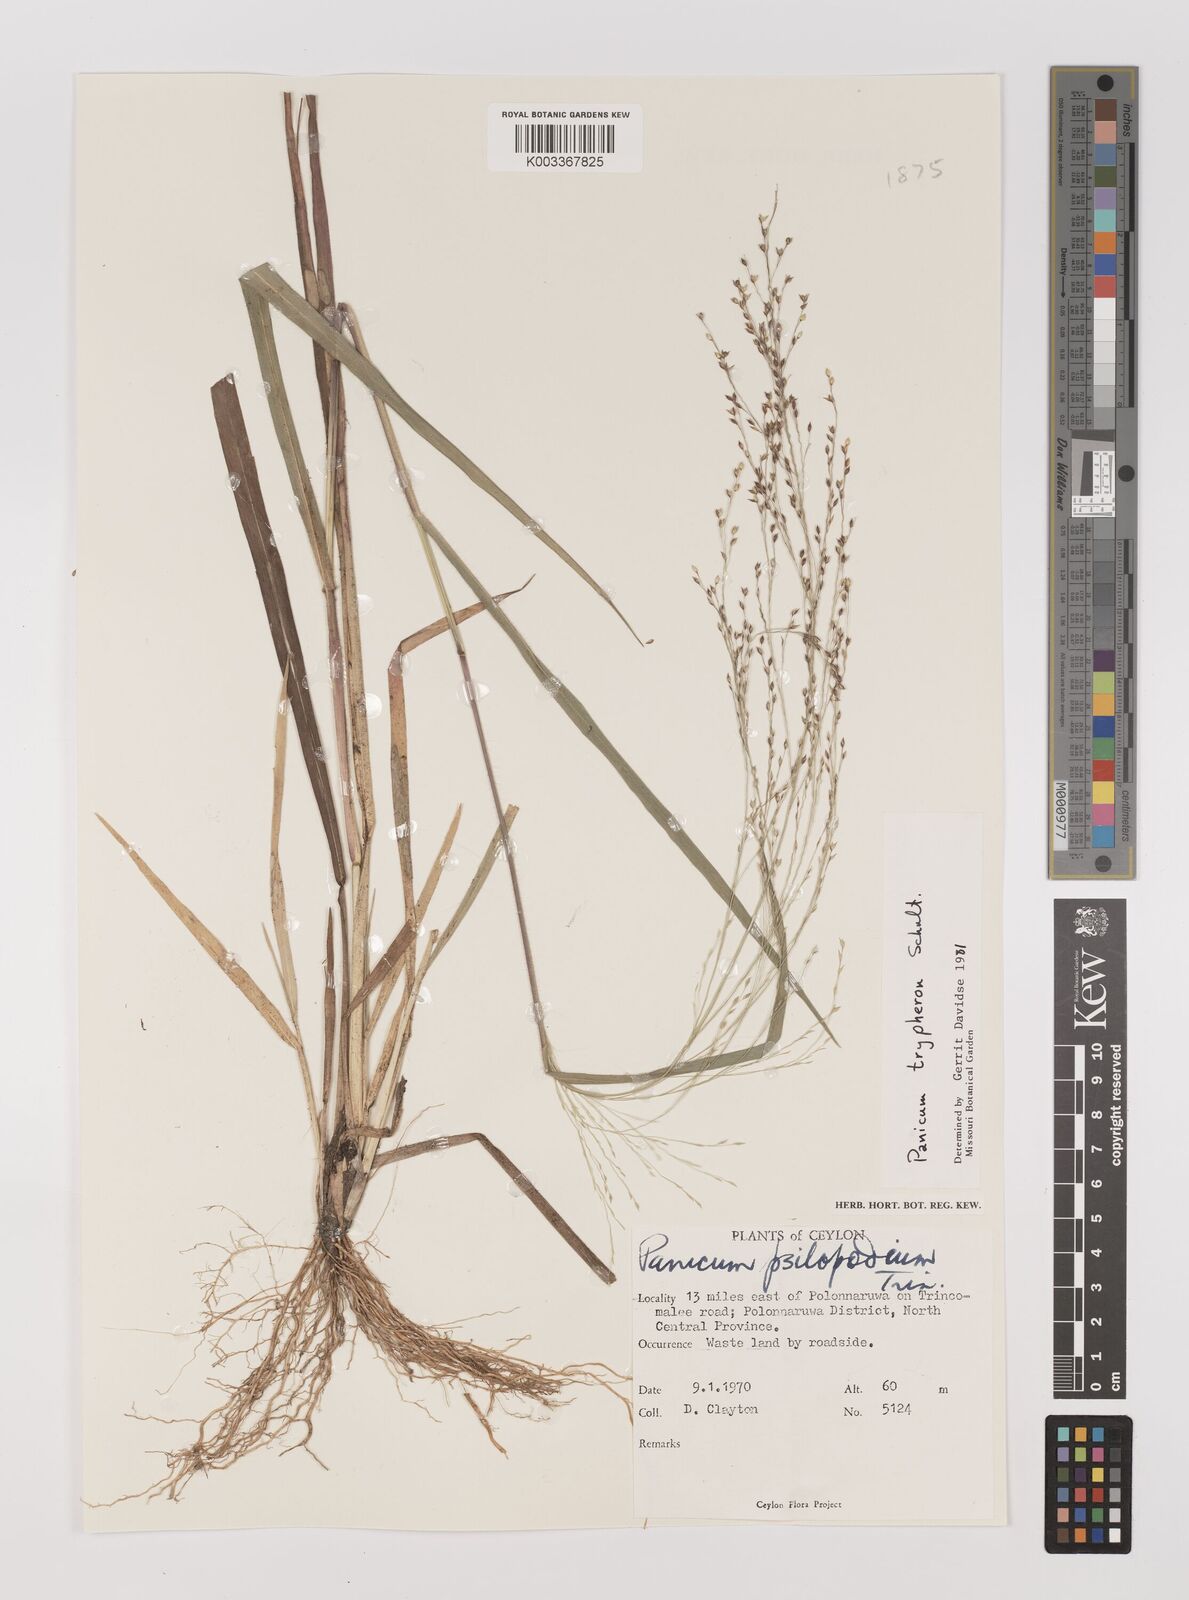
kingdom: Plantae
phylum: Tracheophyta
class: Liliopsida
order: Poales
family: Poaceae
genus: Panicum
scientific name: Panicum curviflorum
